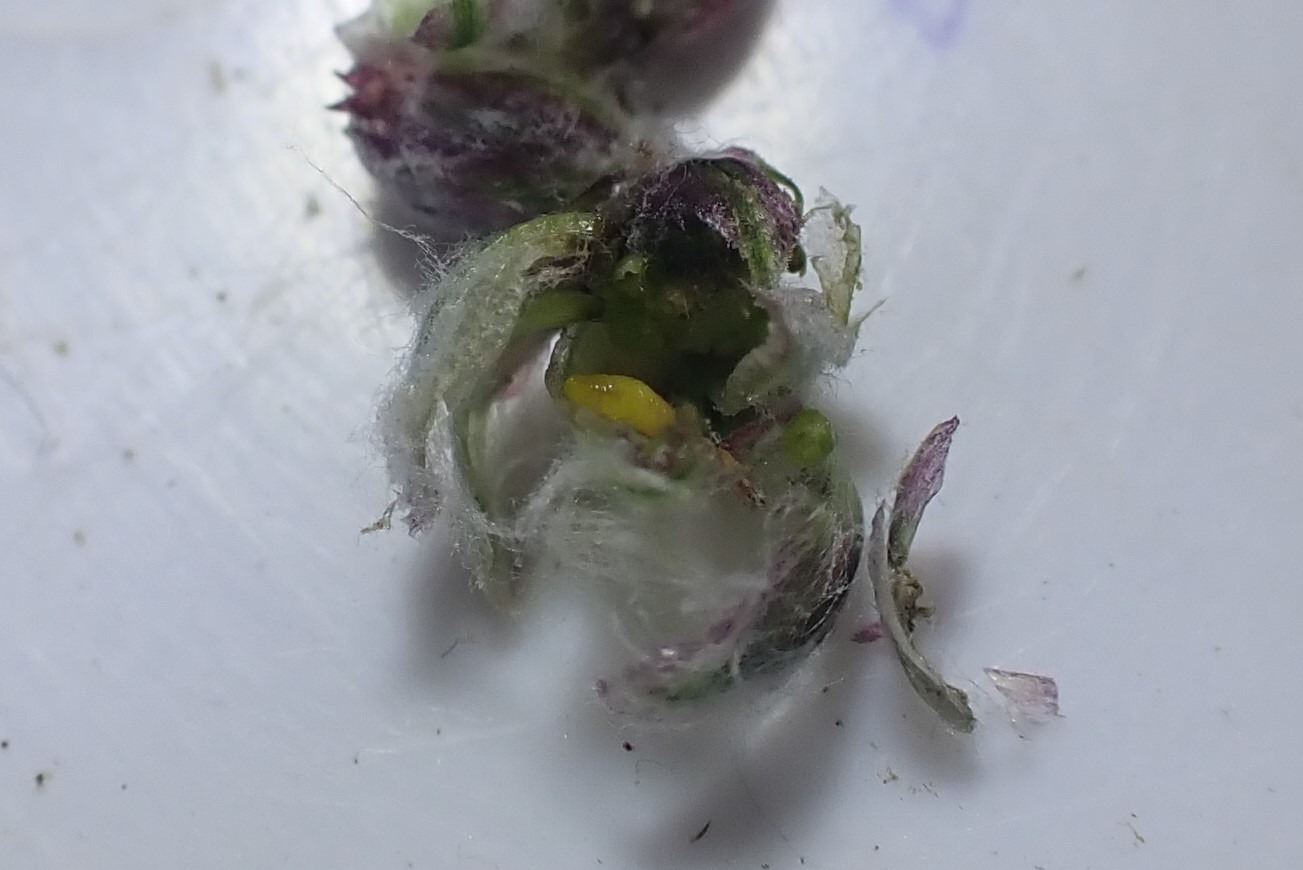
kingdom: Animalia
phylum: Arthropoda
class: Insecta
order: Diptera
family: Cecidomyiidae
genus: Ametrodiplosis
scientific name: Ametrodiplosis rudimentalis
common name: Bynkekurvgalmyg
